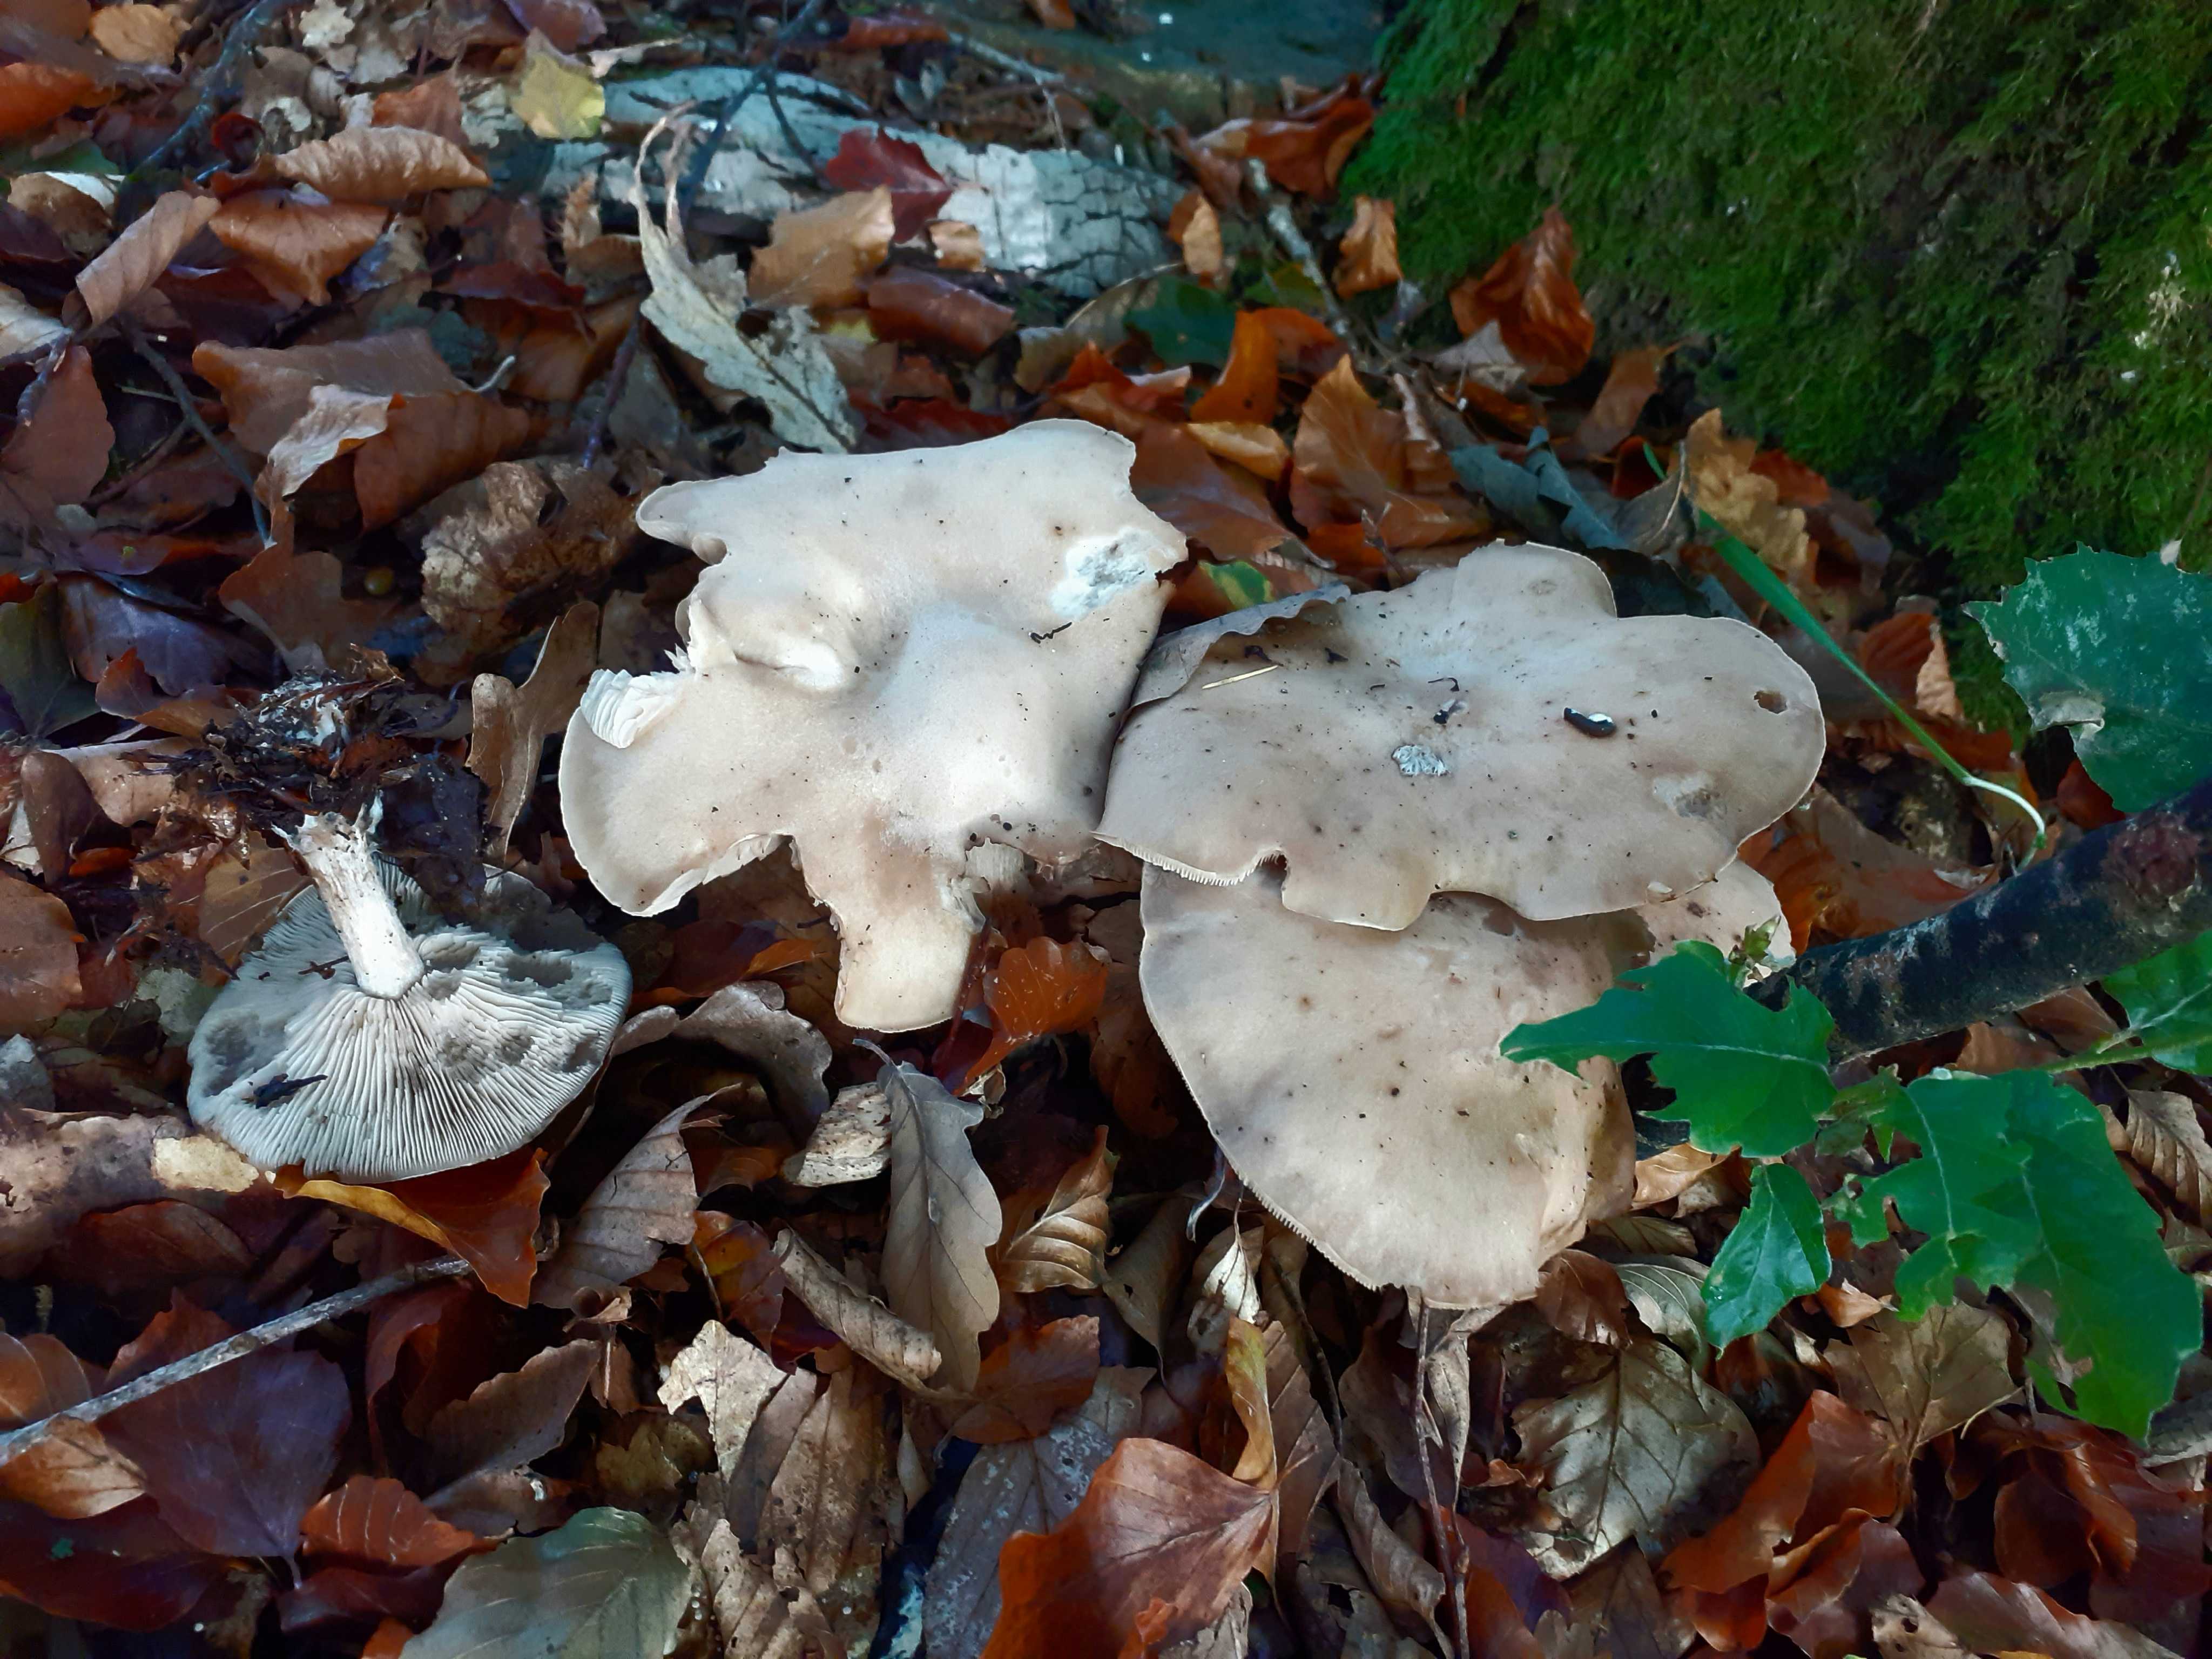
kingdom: Fungi
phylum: Basidiomycota
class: Agaricomycetes
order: Agaricales
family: Tricholomataceae
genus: Lepista
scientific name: Lepista irina
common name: violduftende hekseringshat
